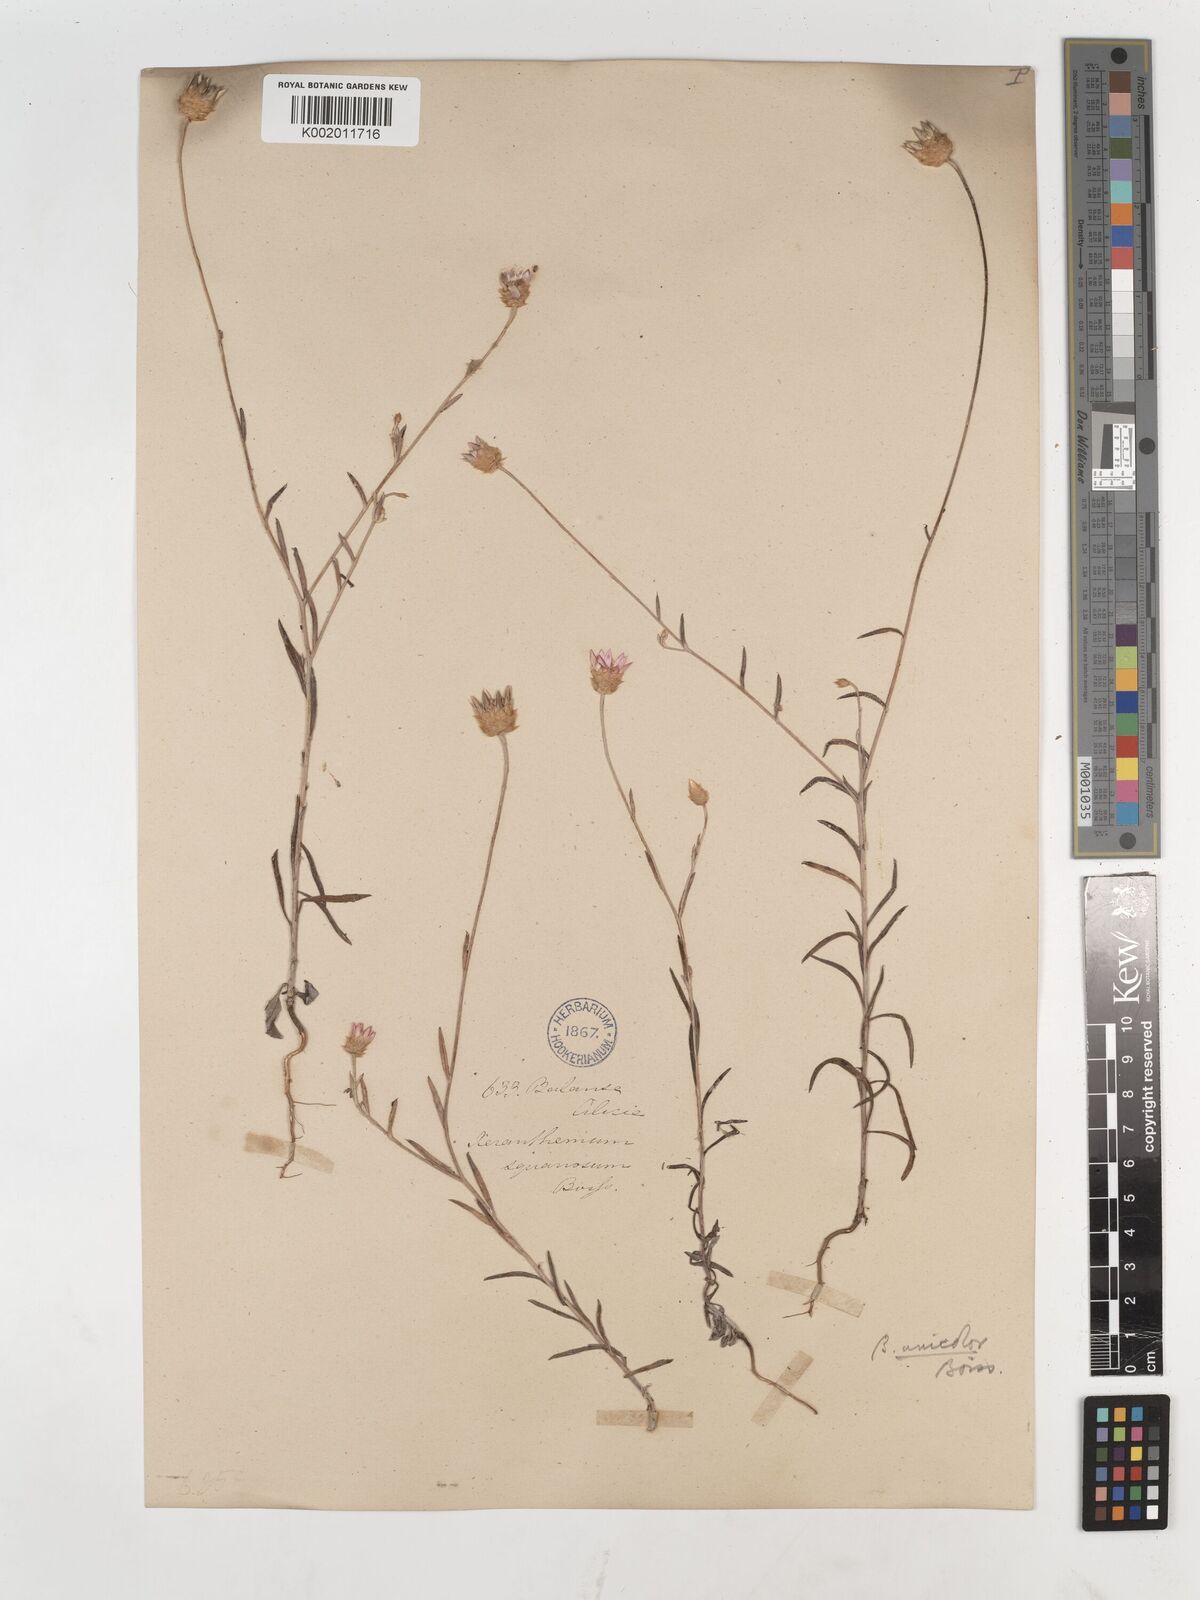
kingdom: Plantae
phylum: Tracheophyta
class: Magnoliopsida
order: Asterales
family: Asteraceae
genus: Xeranthemum
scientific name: Xeranthemum squarrosum
